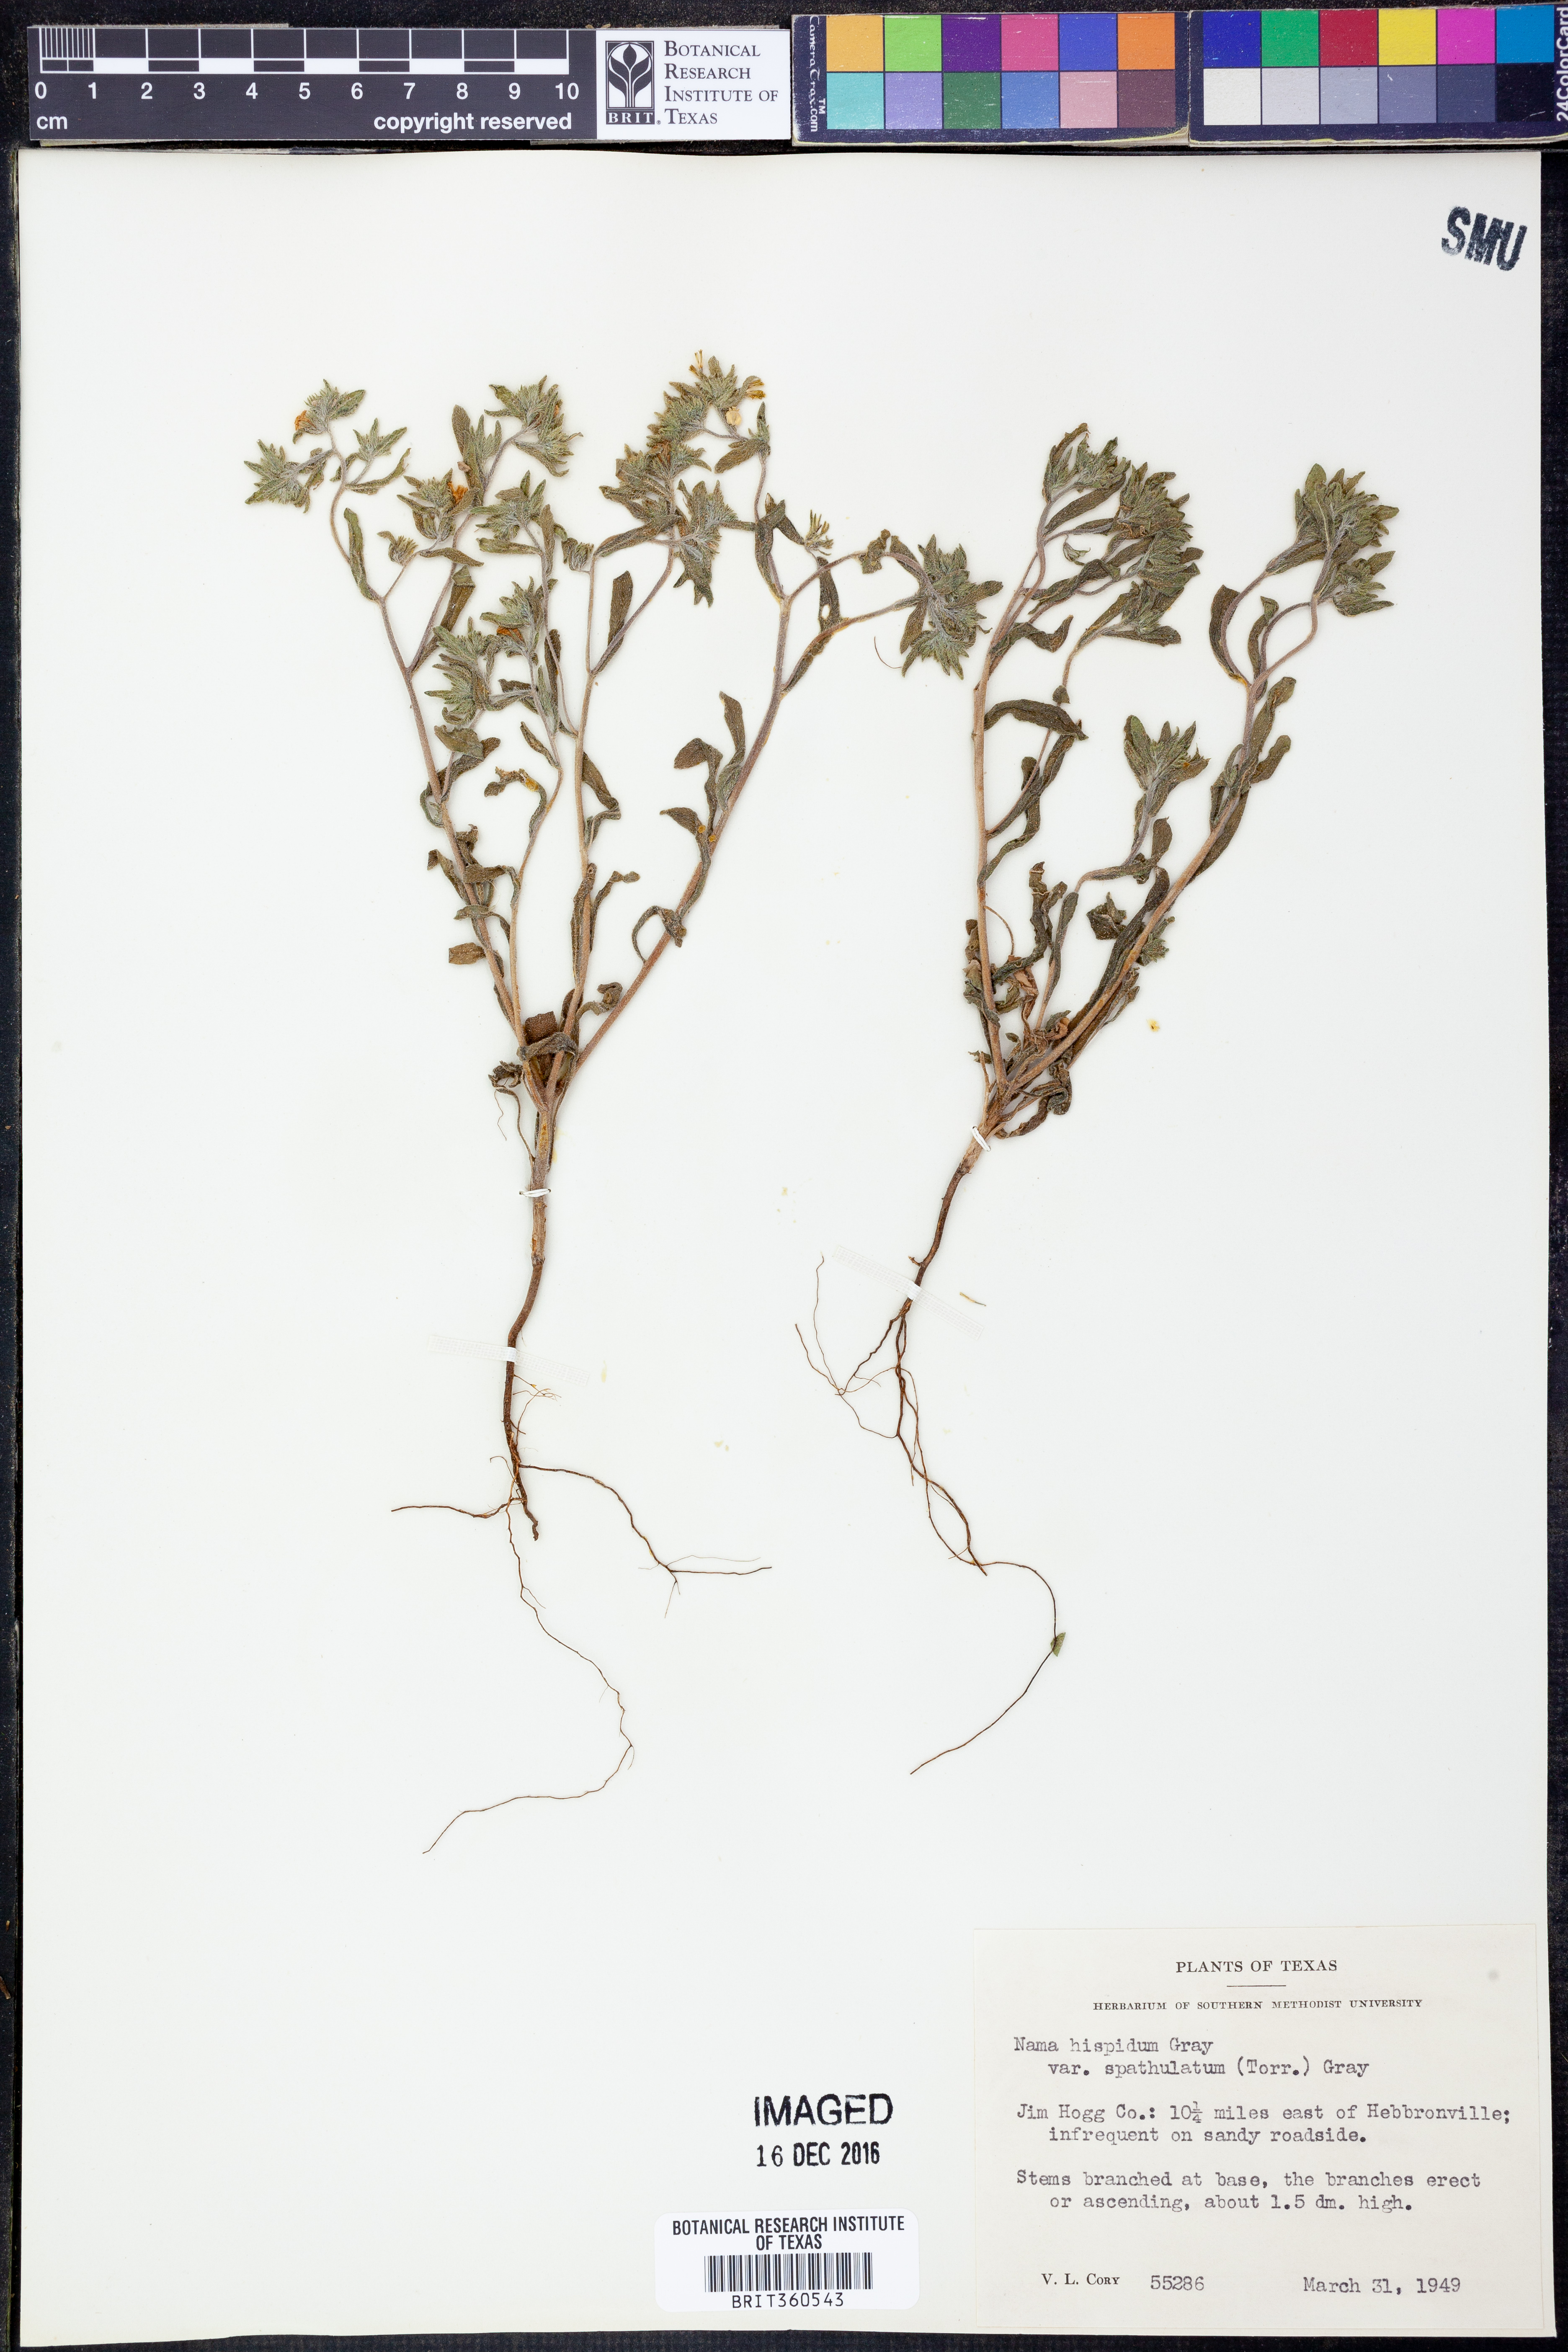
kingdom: Plantae
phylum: Tracheophyta
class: Magnoliopsida
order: Boraginales
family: Namaceae
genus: Nama
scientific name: Nama hispida
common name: Bristly nama
